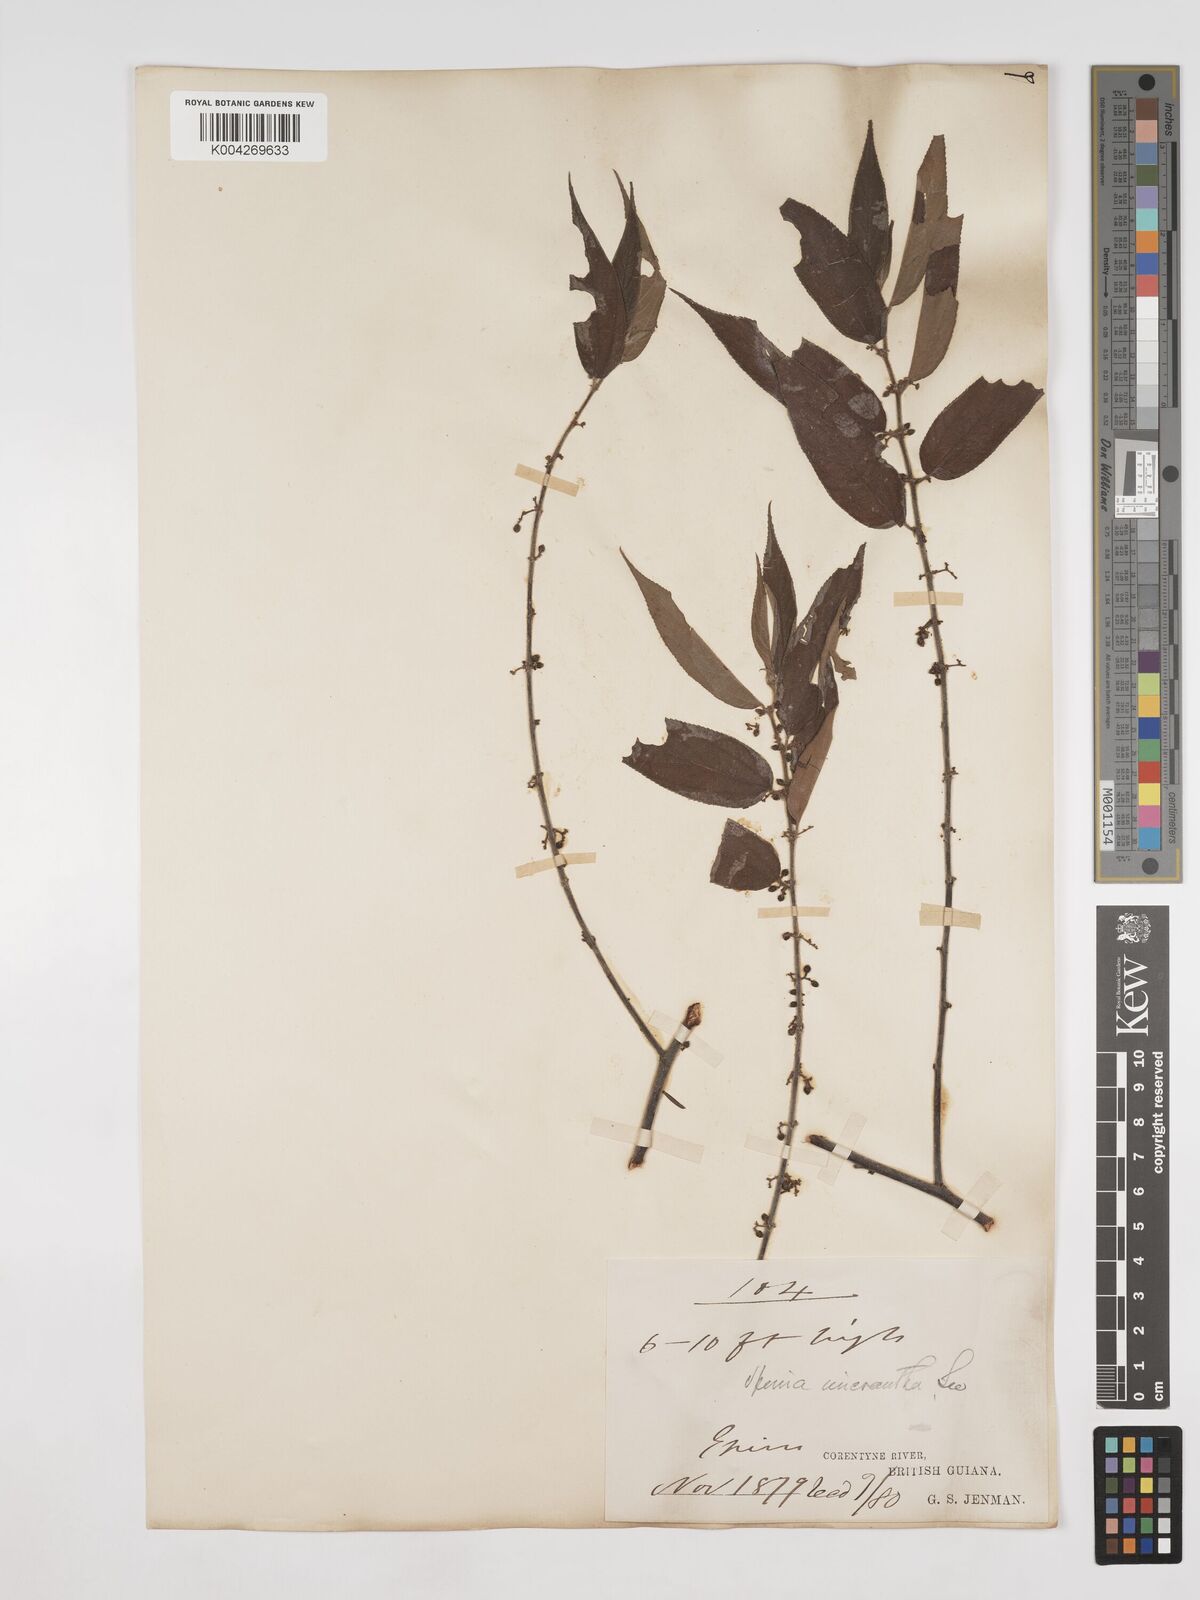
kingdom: Plantae
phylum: Tracheophyta
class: Magnoliopsida
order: Rosales
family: Cannabaceae
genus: Trema
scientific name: Trema micranthum
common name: Jamaican nettletree
